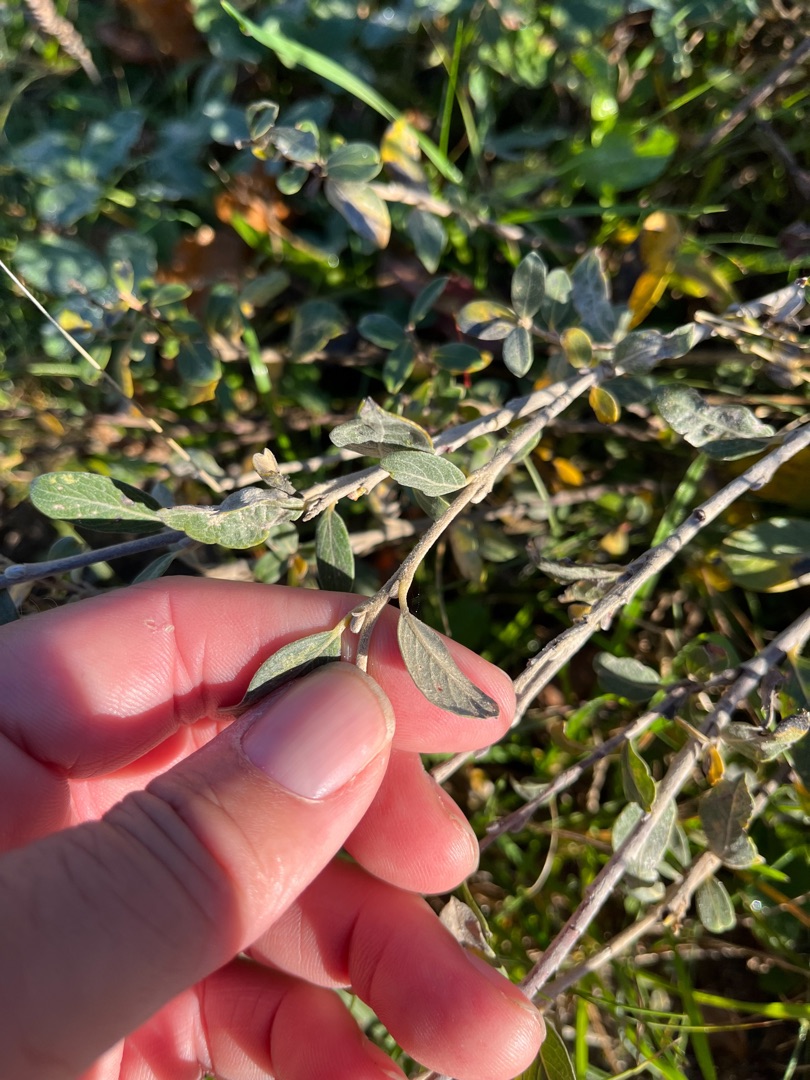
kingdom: Plantae
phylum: Tracheophyta
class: Magnoliopsida
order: Malpighiales
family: Salicaceae
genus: Salix
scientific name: Salix repens
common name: Gråris
